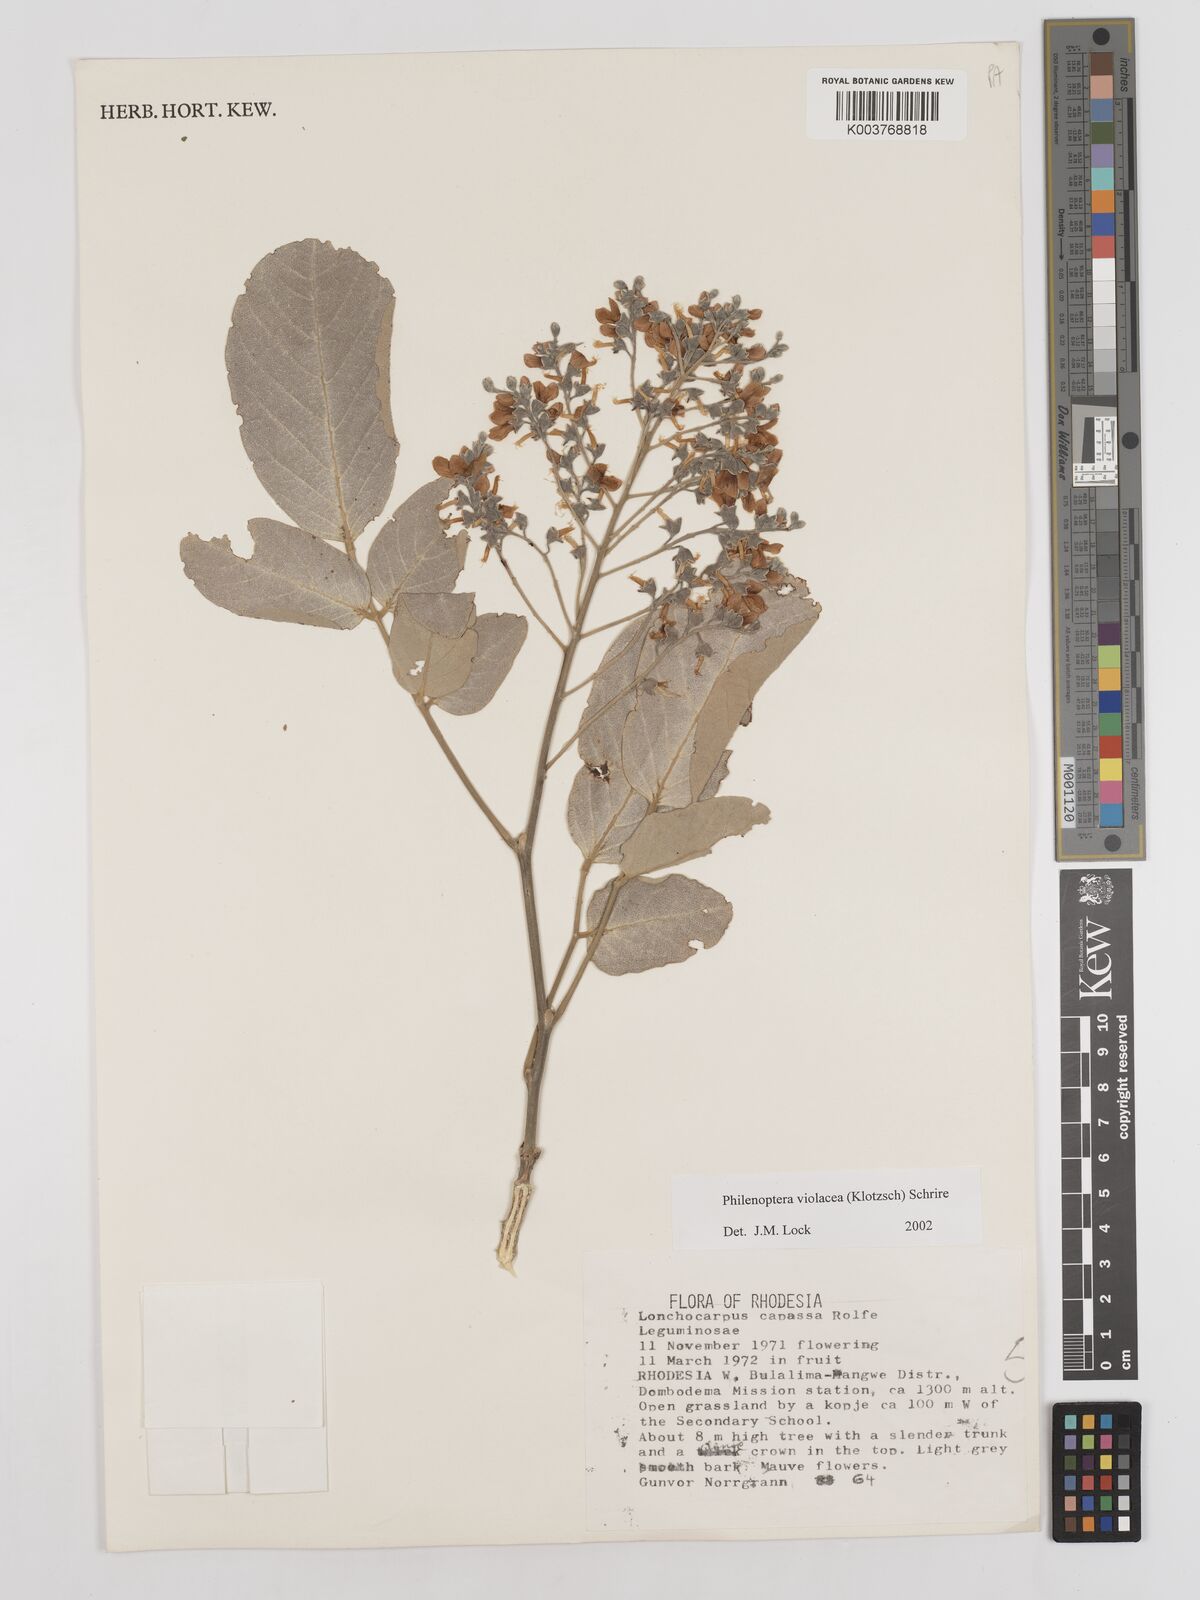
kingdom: Plantae
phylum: Tracheophyta
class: Magnoliopsida
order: Fabales
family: Fabaceae
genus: Philenoptera
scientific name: Philenoptera violacea
